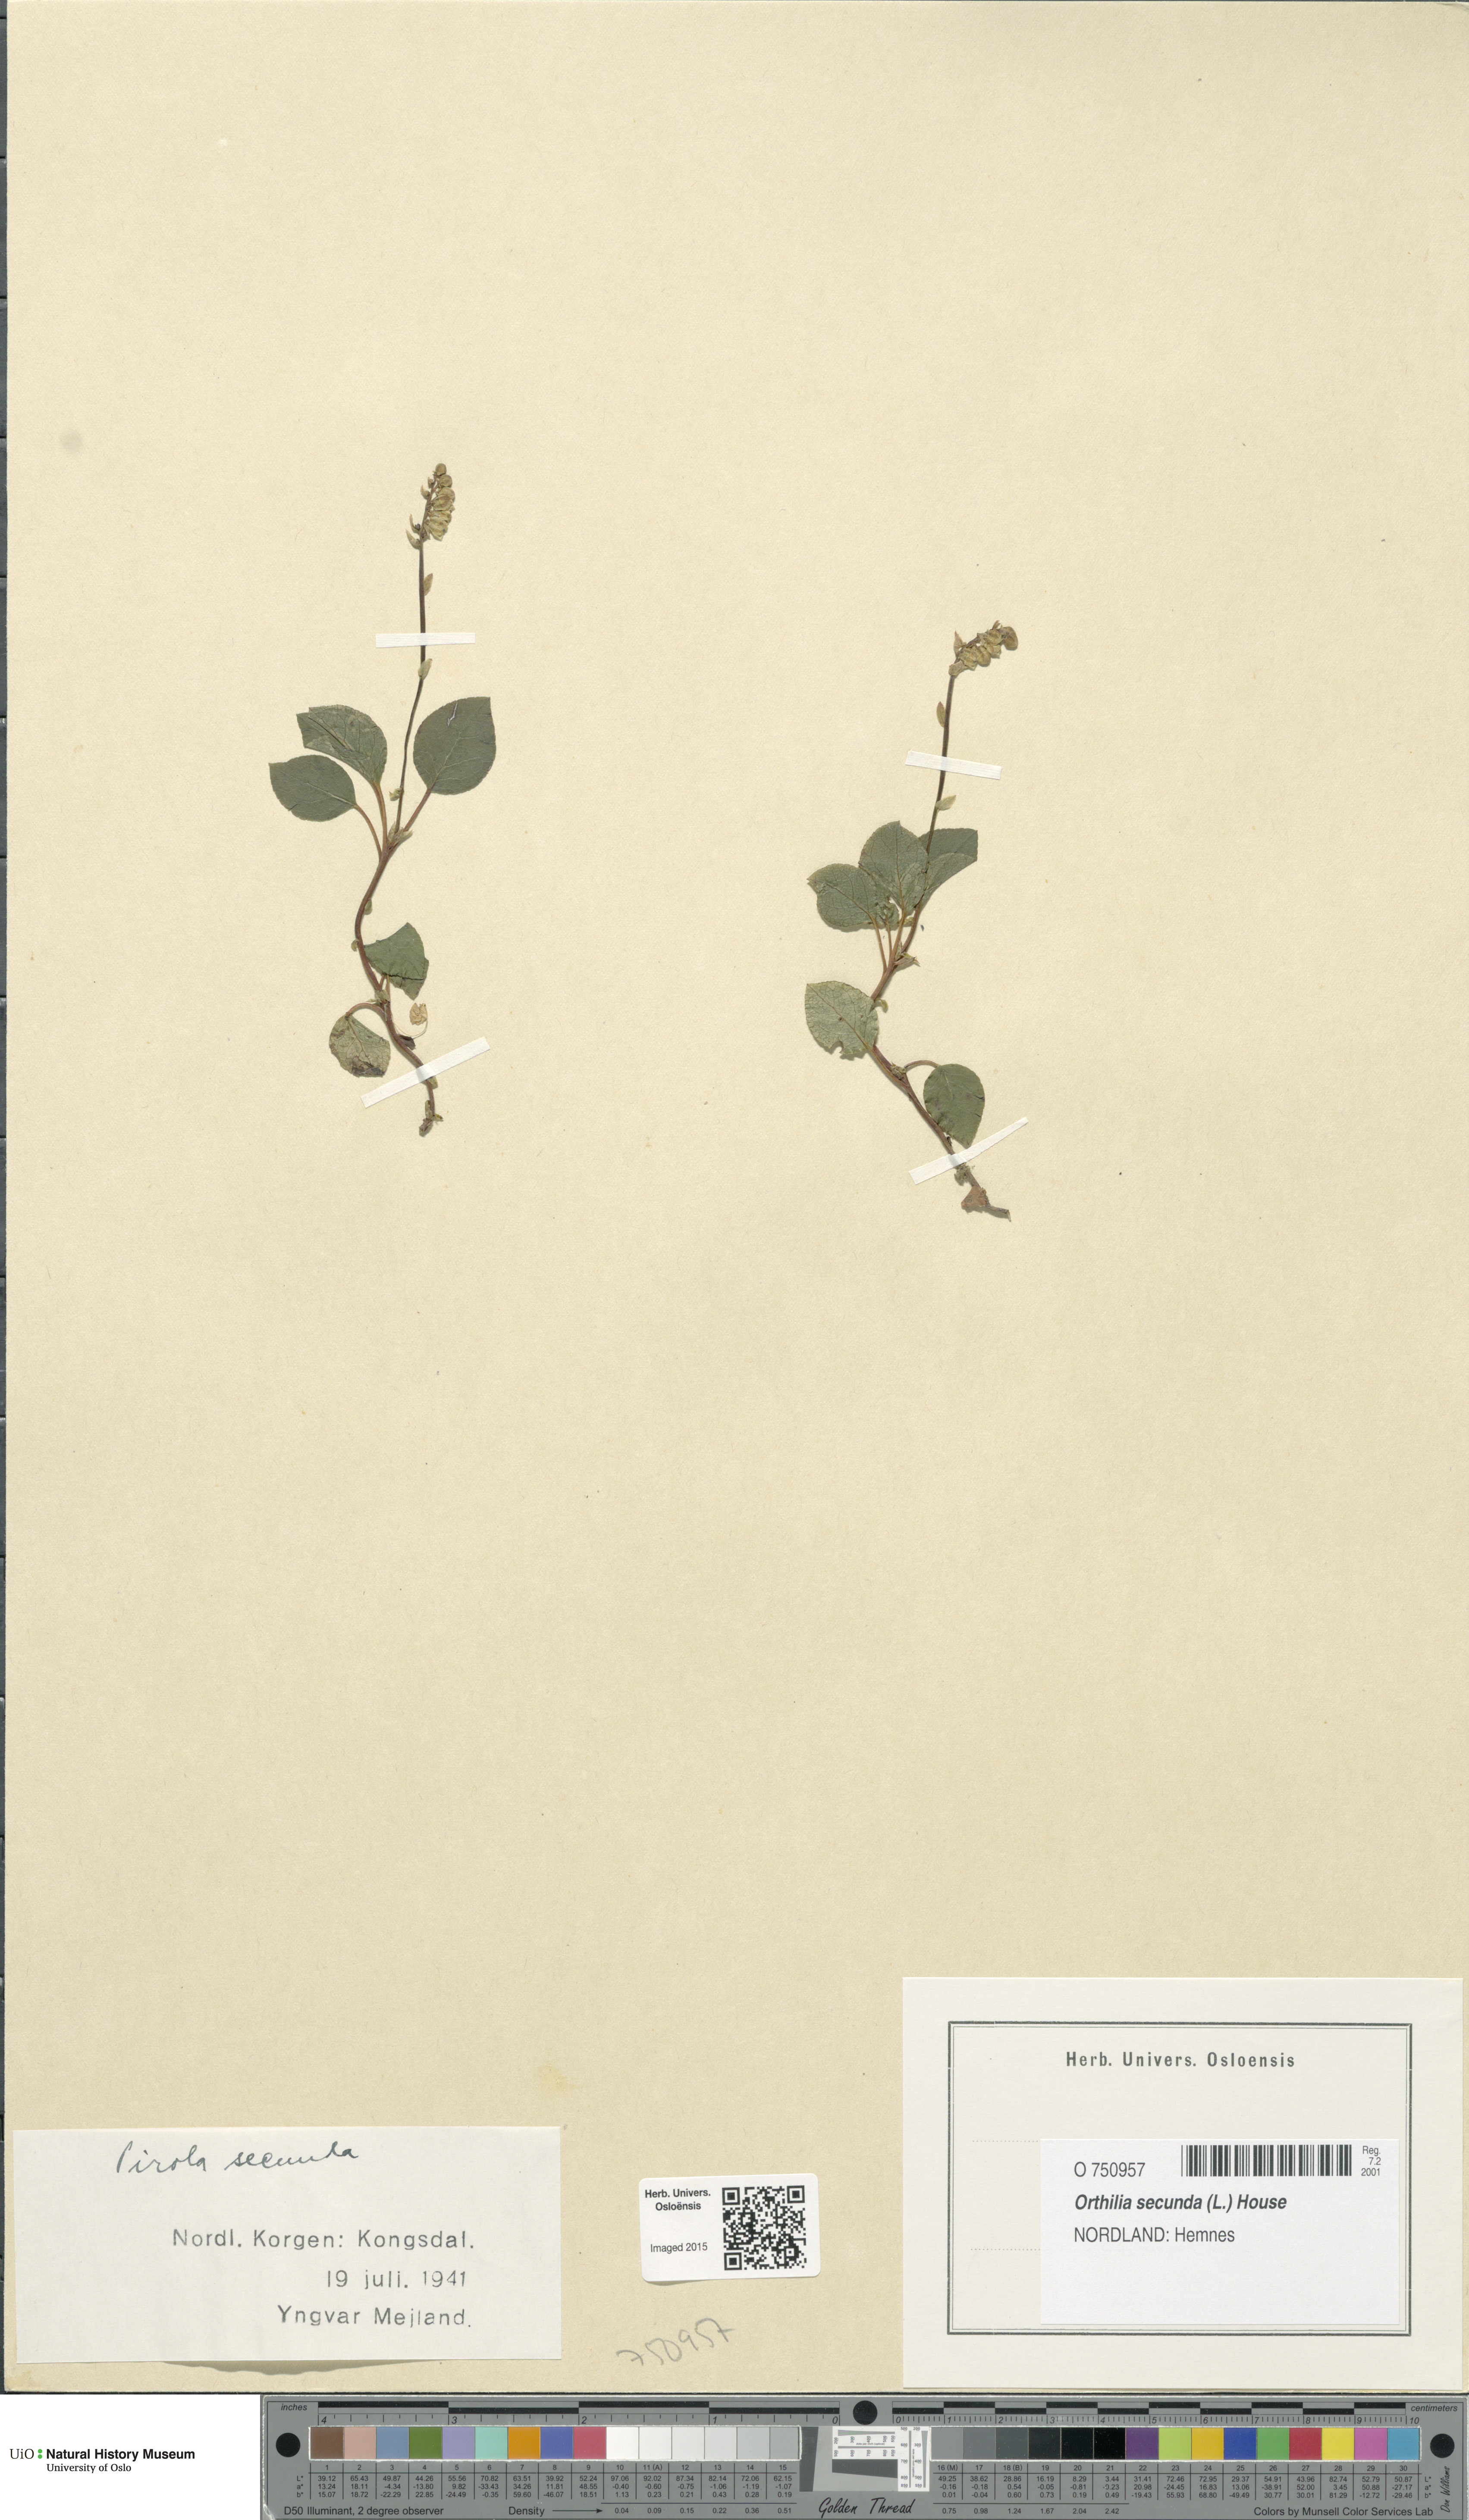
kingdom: Plantae
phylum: Tracheophyta
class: Magnoliopsida
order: Ericales
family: Ericaceae
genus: Orthilia
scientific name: Orthilia secunda
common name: One-sided orthilia
